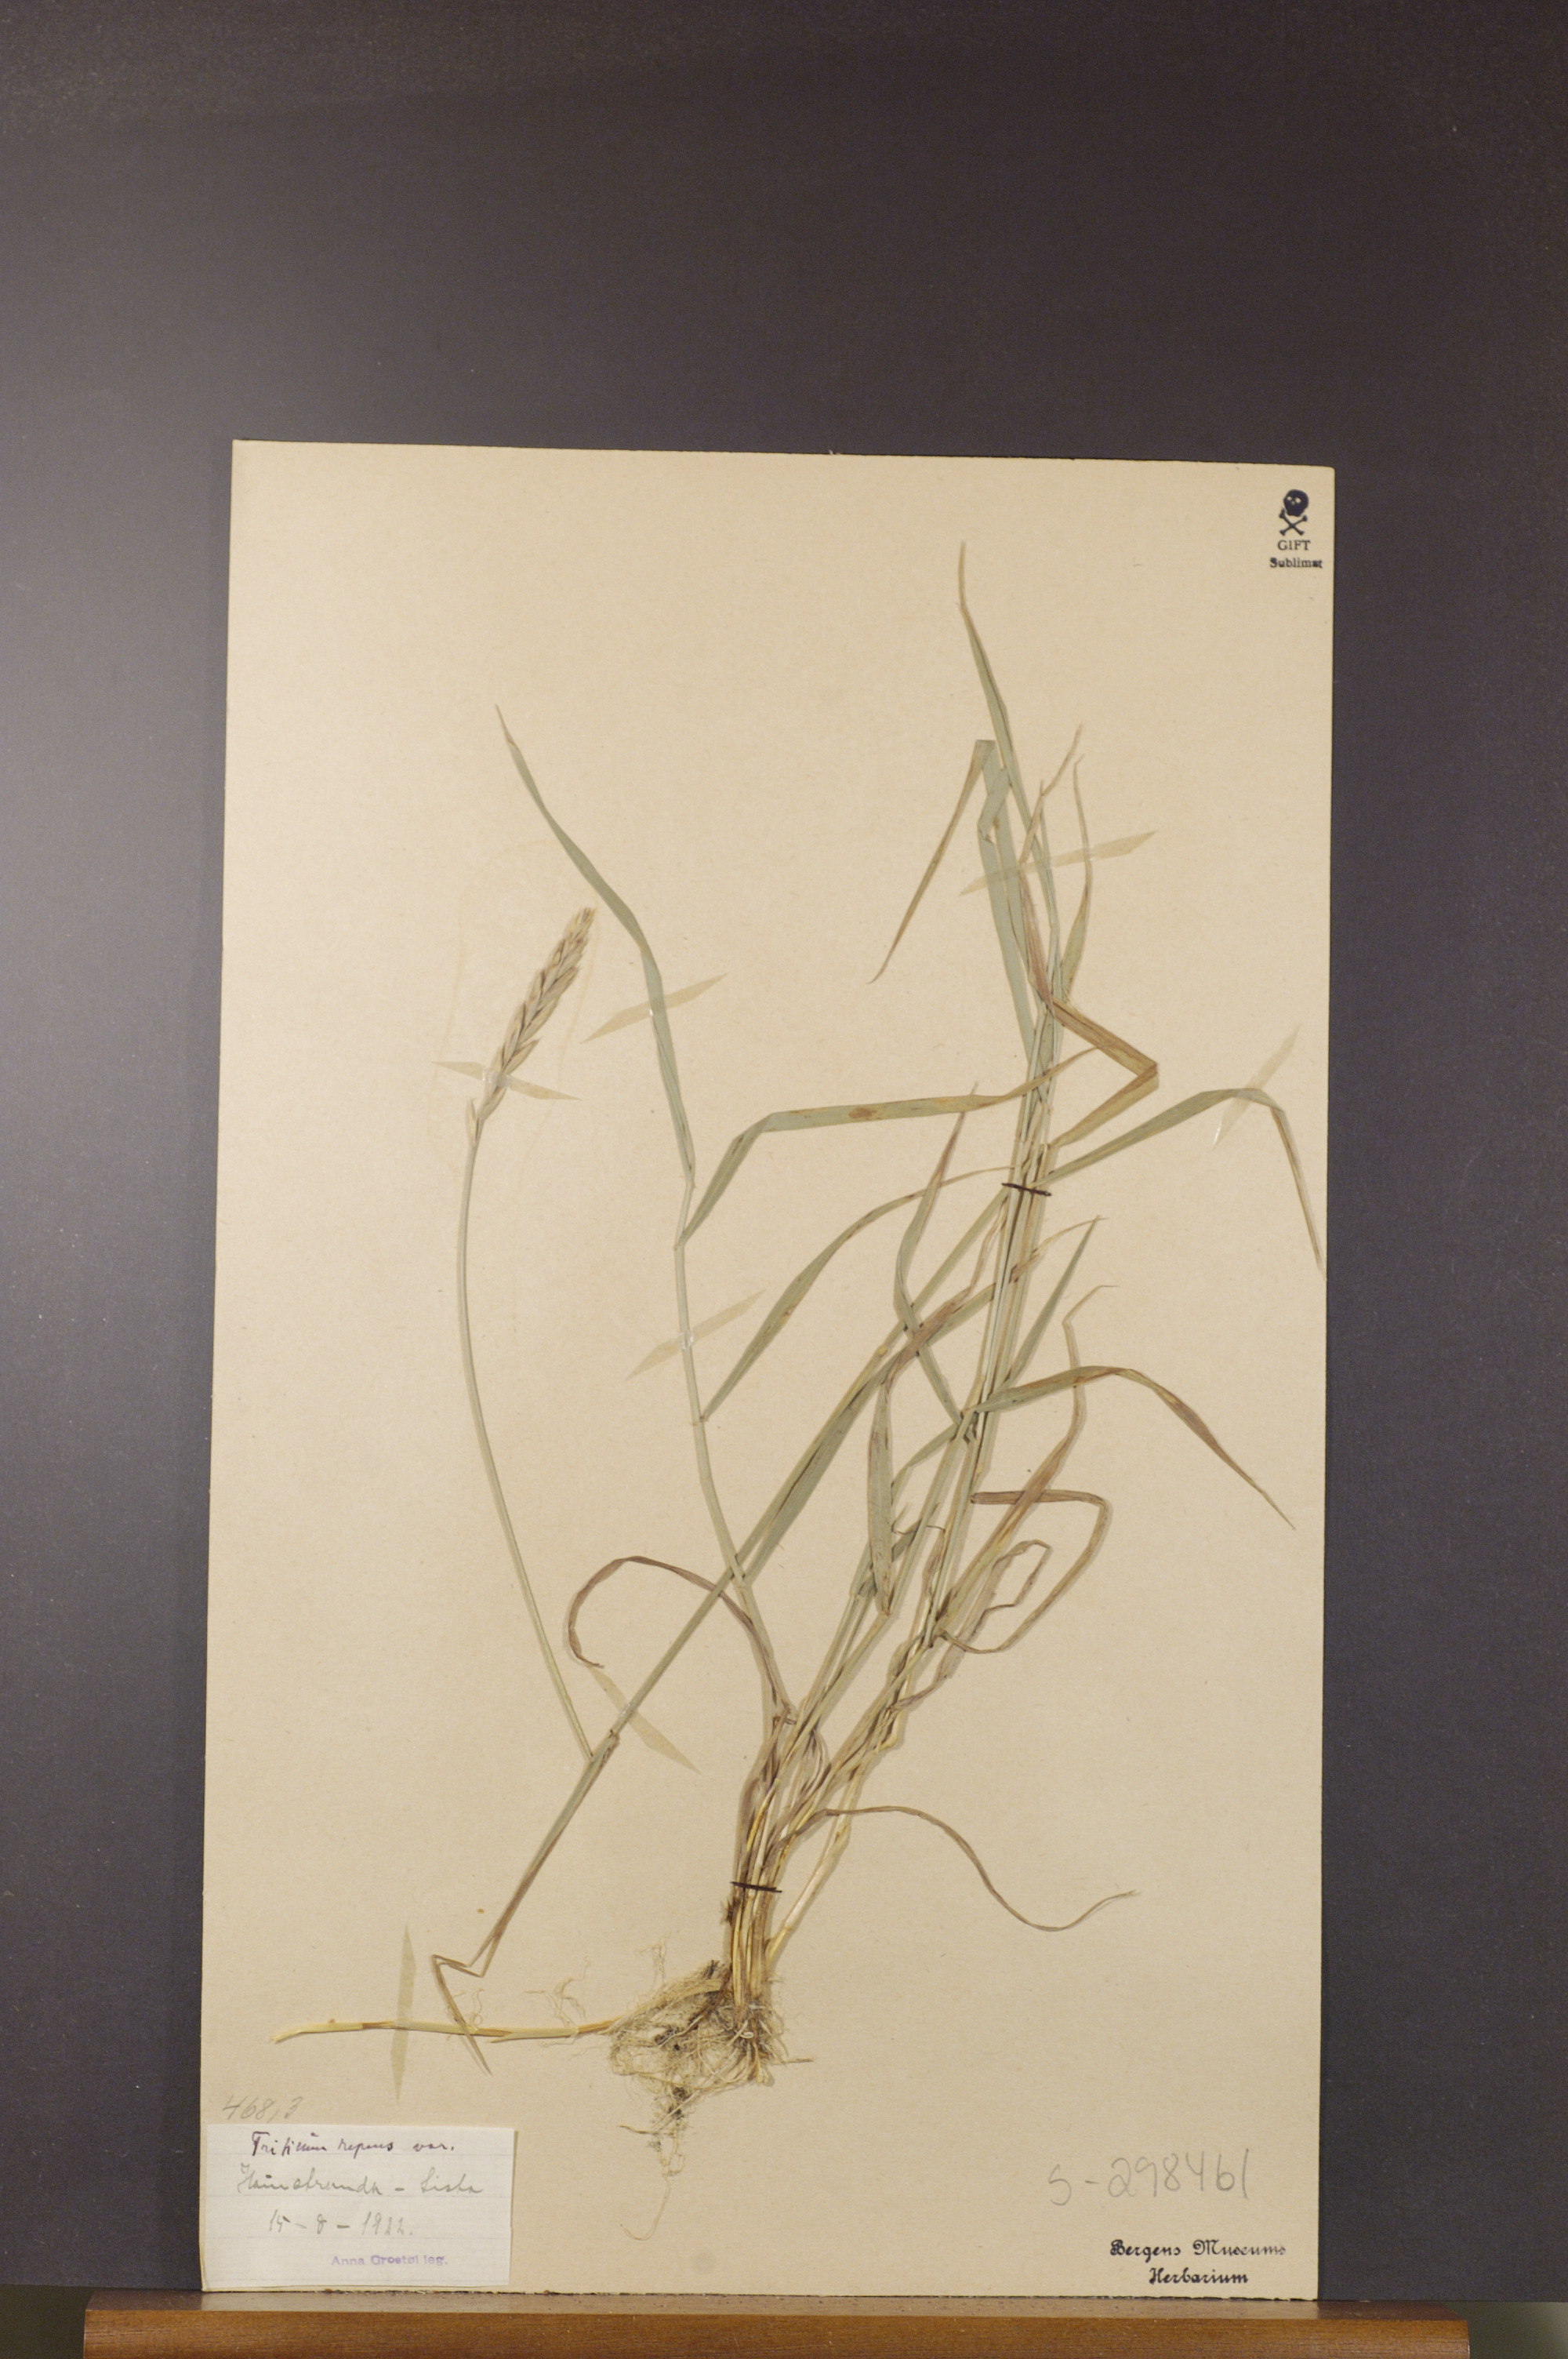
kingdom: Plantae
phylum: Tracheophyta
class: Liliopsida
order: Poales
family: Poaceae
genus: Elymus
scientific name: Elymus repens
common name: Quackgrass
